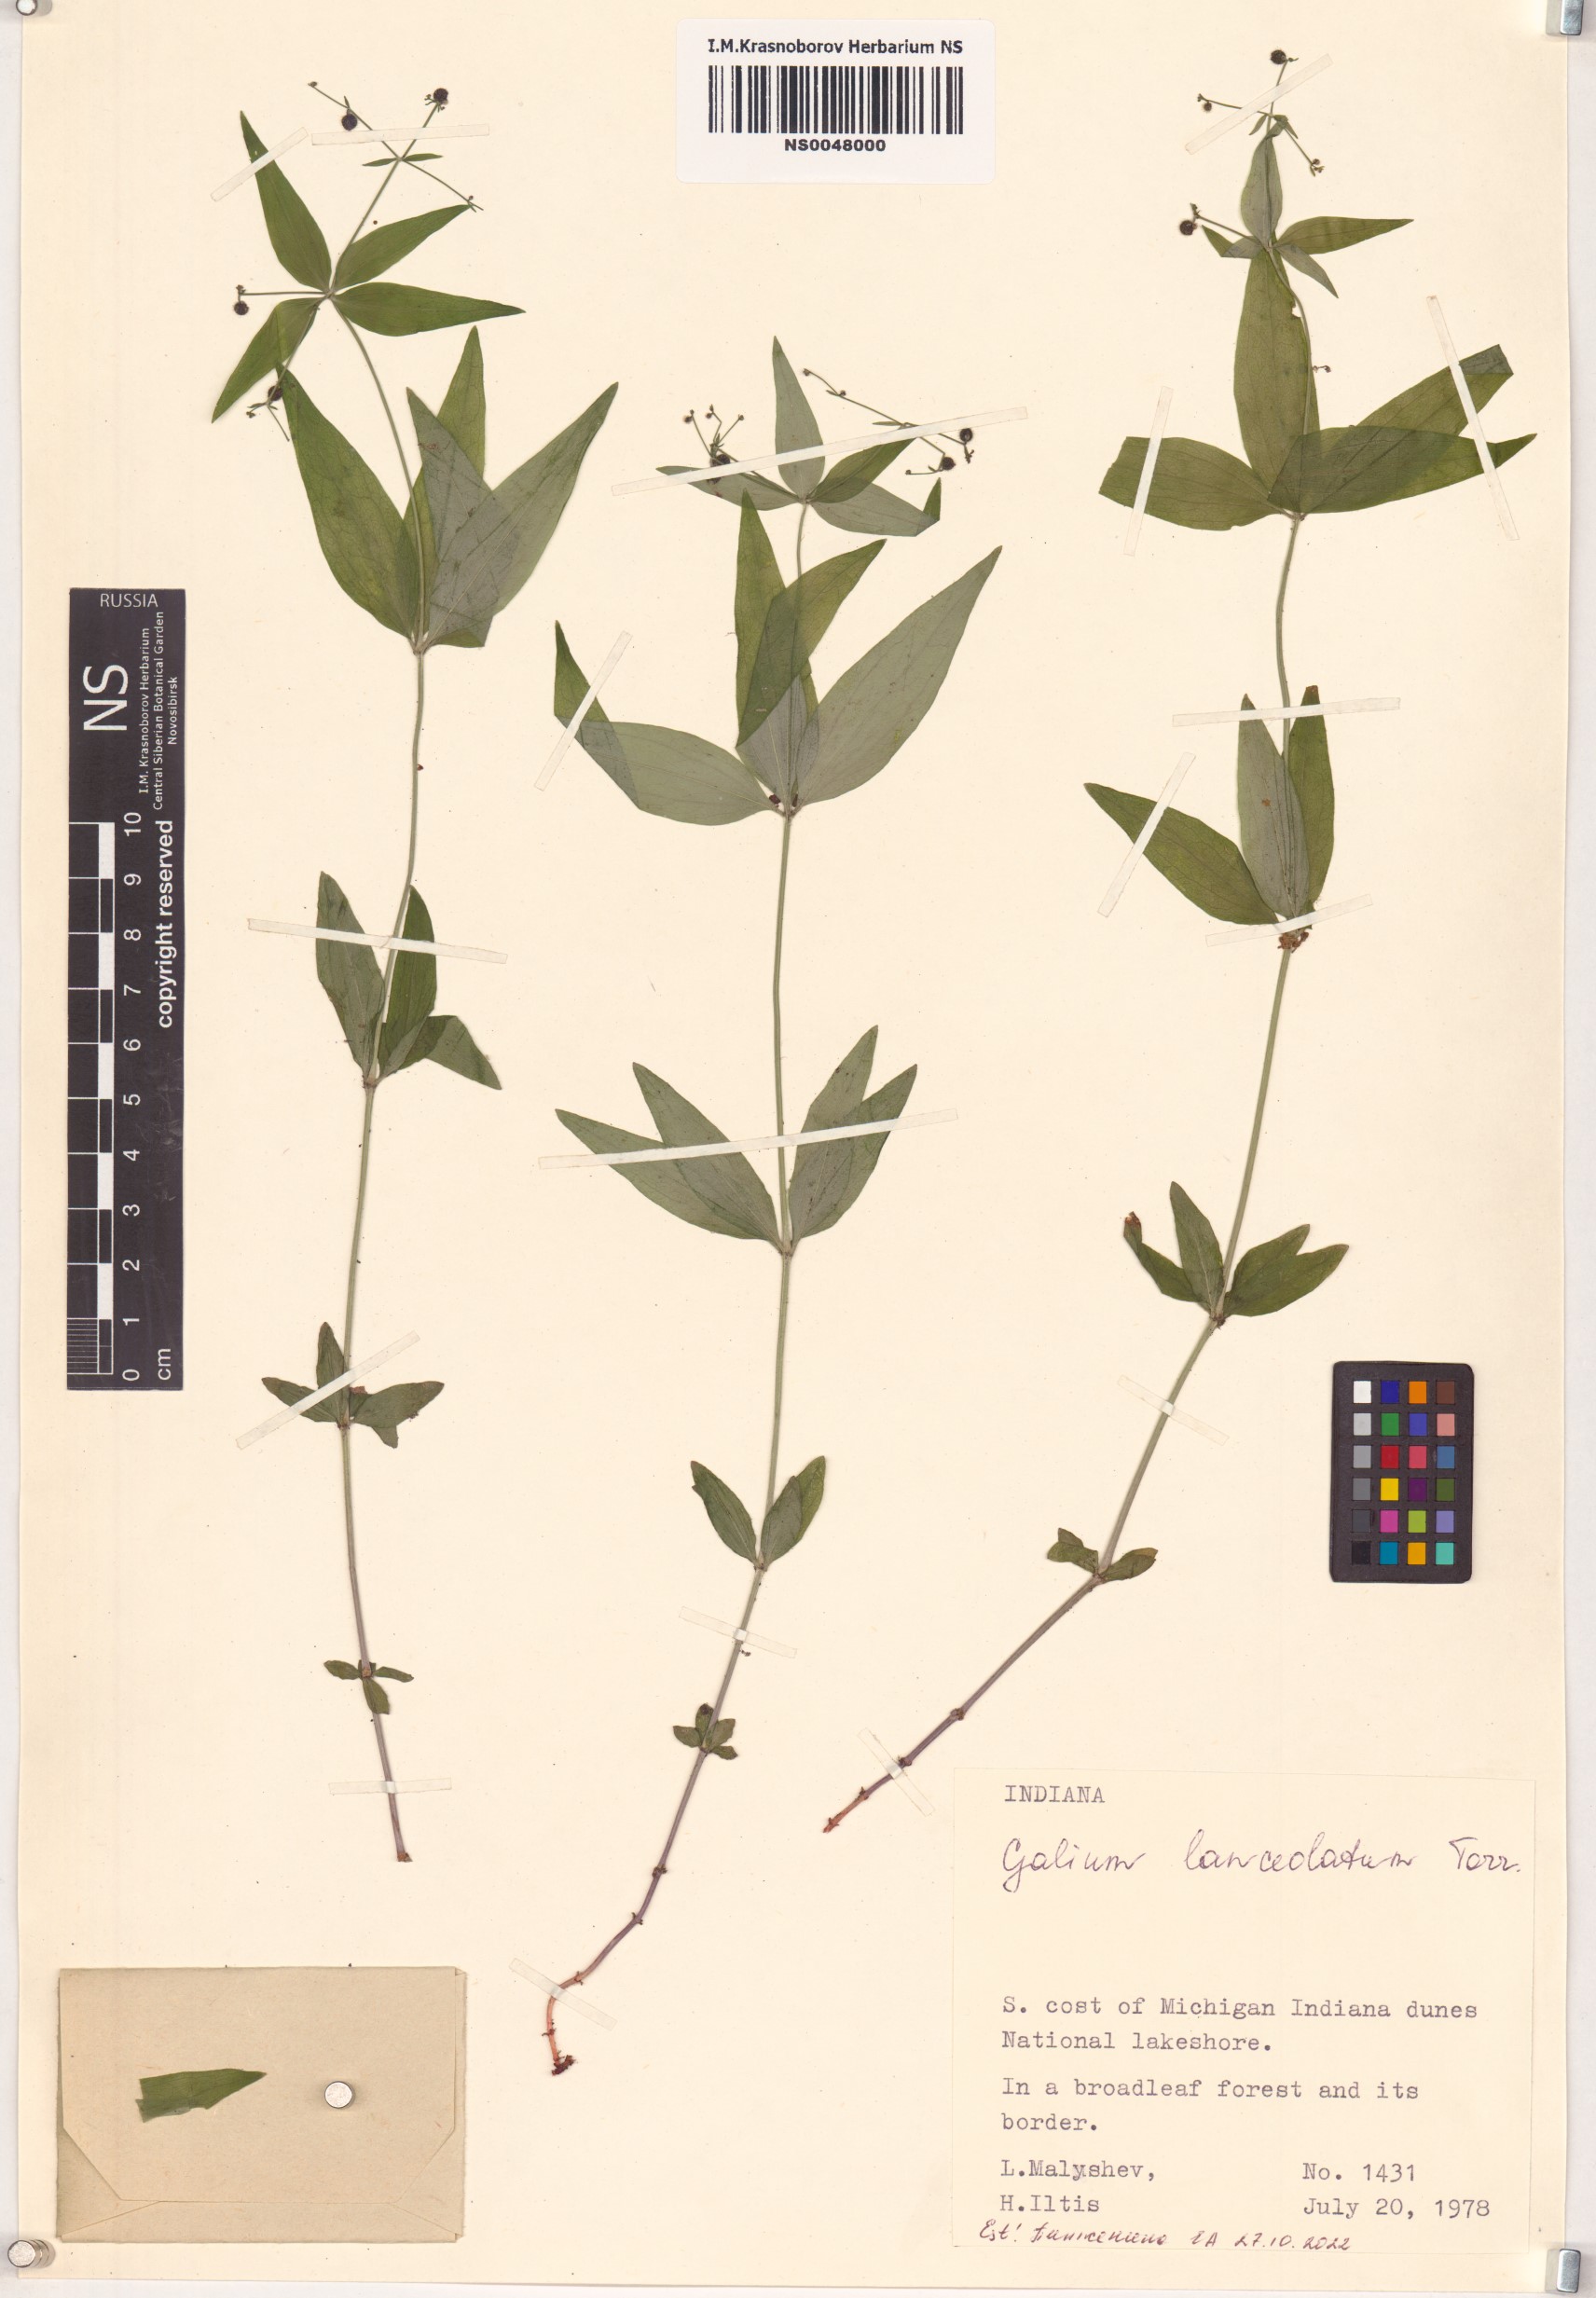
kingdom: Plantae
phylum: Tracheophyta
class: Magnoliopsida
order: Gentianales
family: Rubiaceae
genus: Galium
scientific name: Galium lanceolatum
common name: Lance-leaved wild licorice
